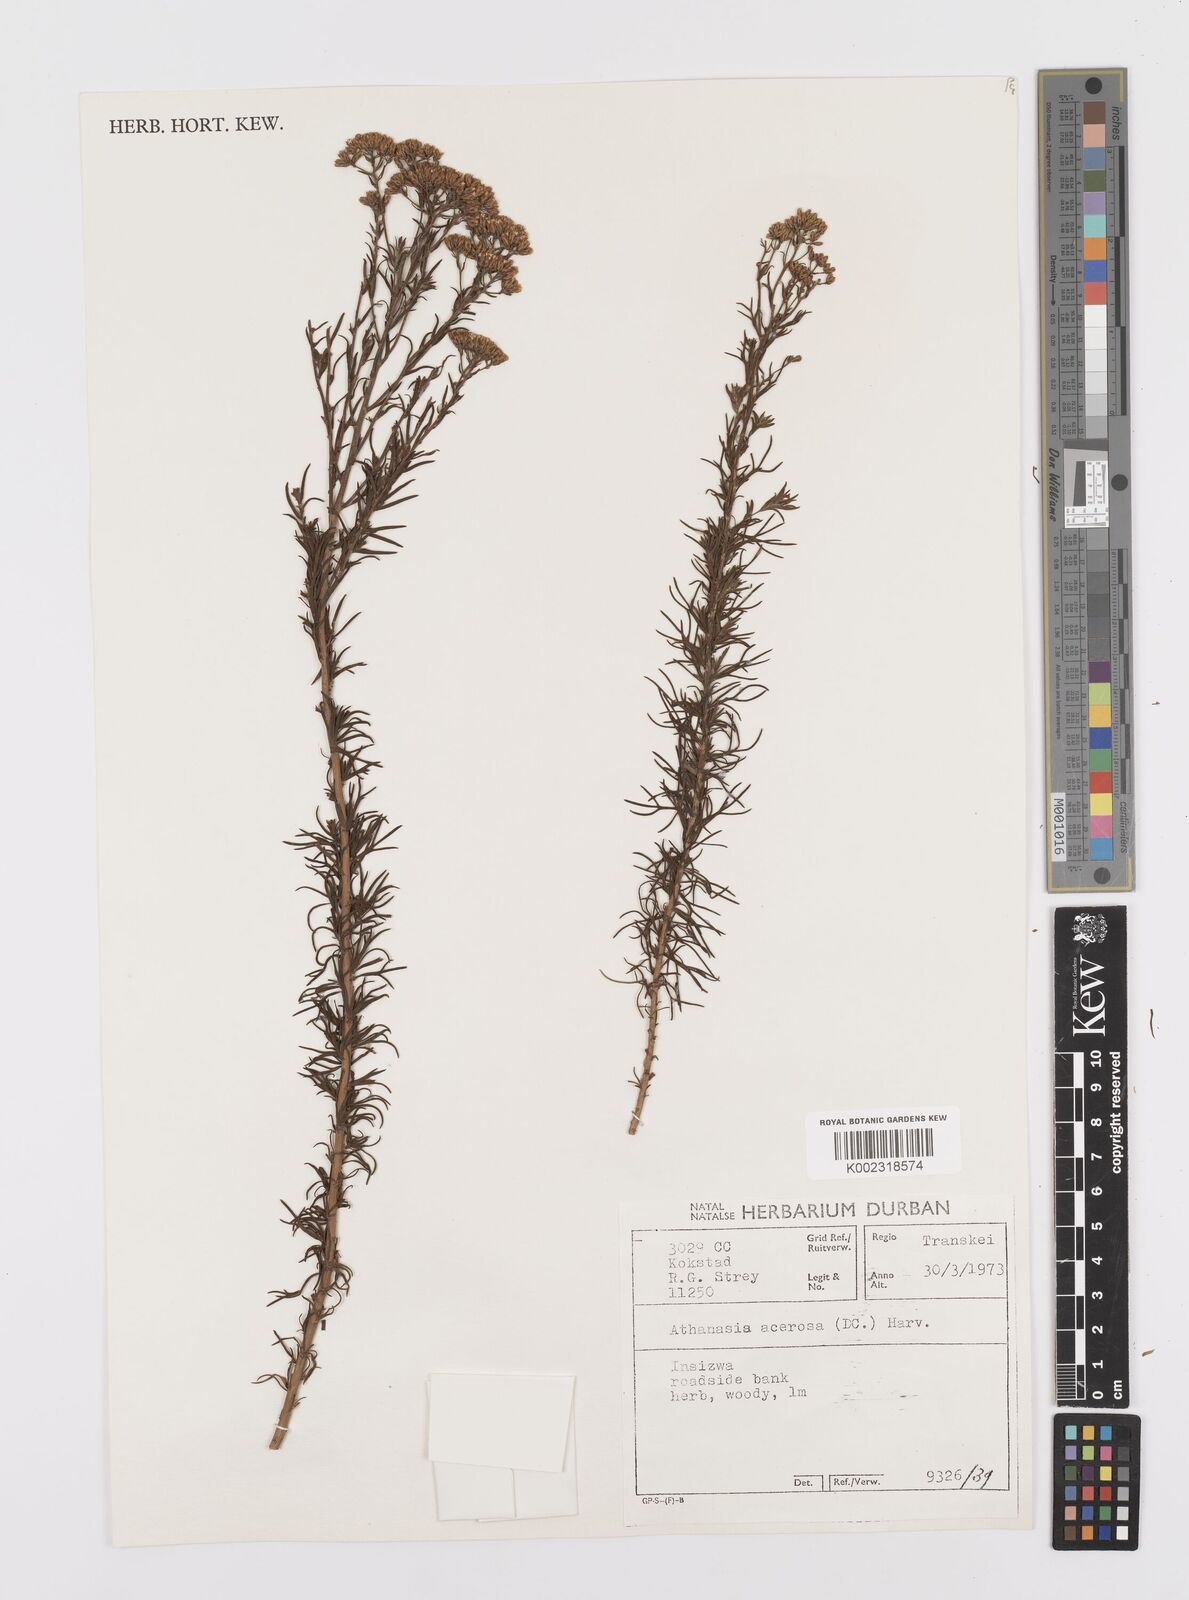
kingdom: Plantae
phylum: Tracheophyta
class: Magnoliopsida
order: Asterales
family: Asteraceae
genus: Phymaspermum
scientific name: Phymaspermum acerosum
